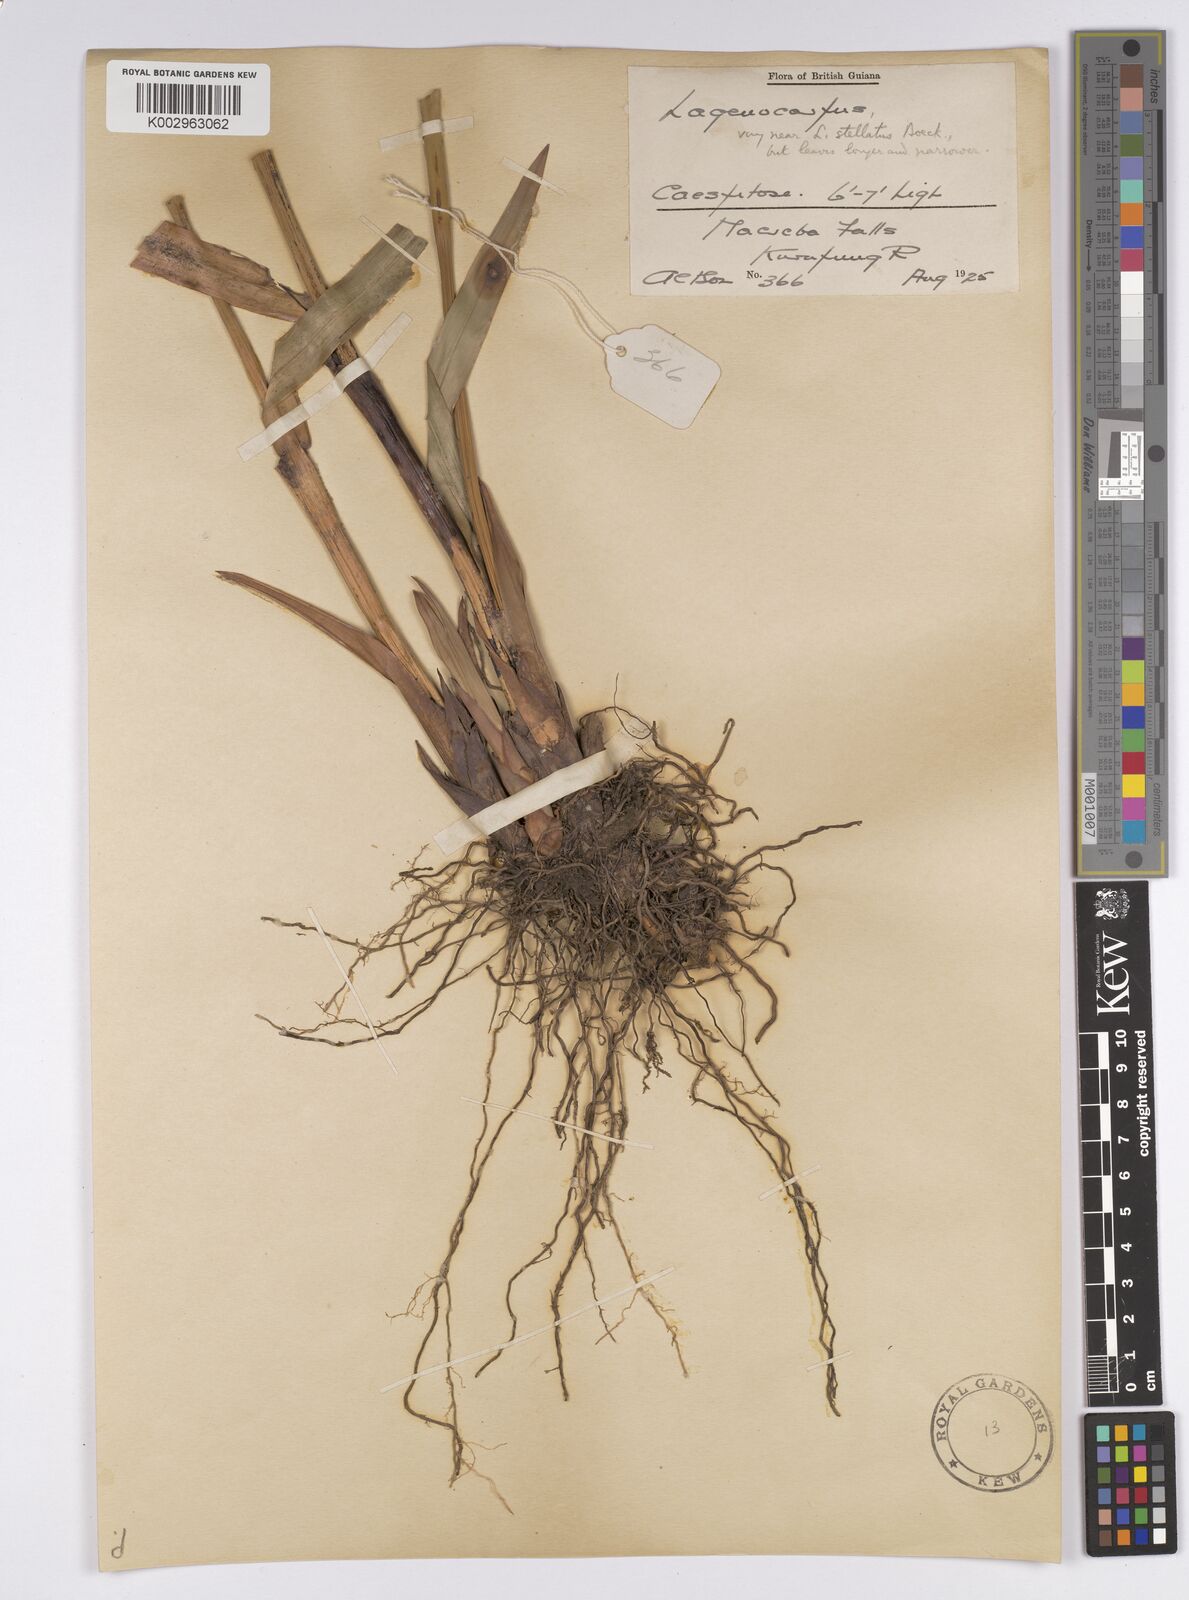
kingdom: Plantae
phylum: Tracheophyta
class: Liliopsida
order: Poales
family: Cyperaceae
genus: Didymiandrum
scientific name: Didymiandrum stellatum
